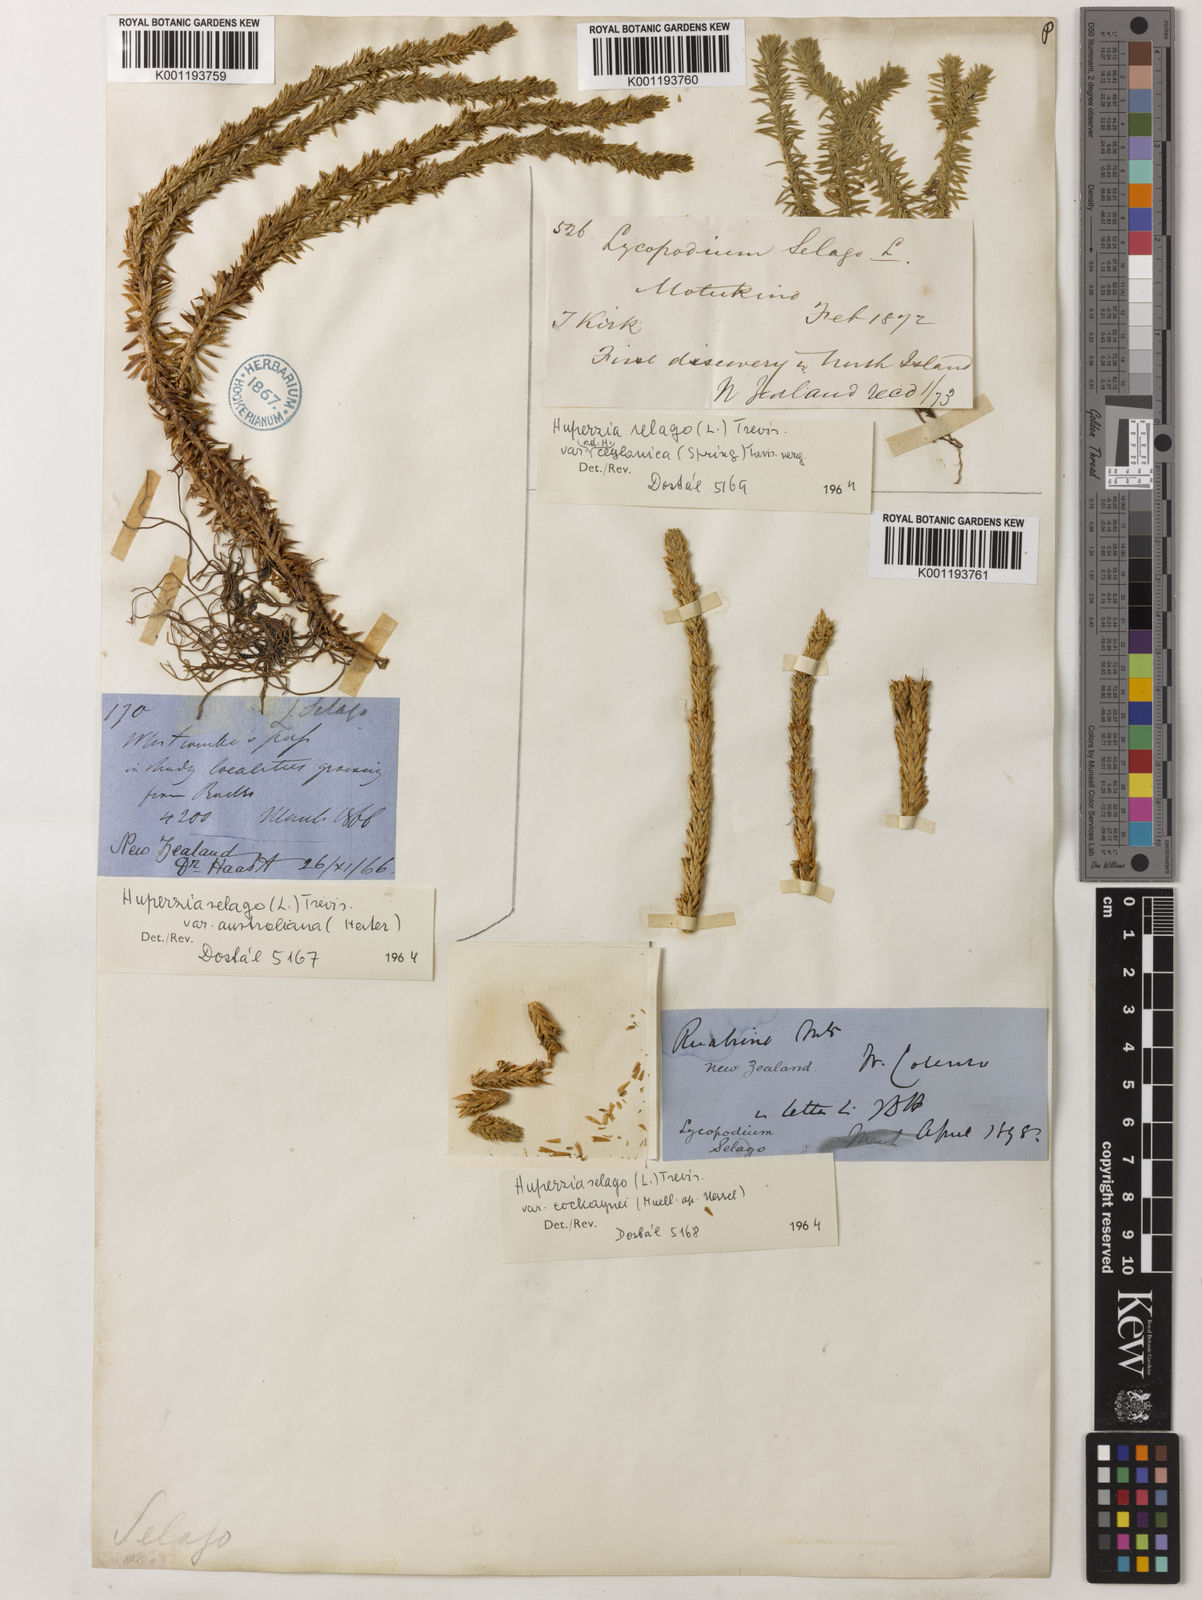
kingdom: Plantae
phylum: Tracheophyta
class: Lycopodiopsida
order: Lycopodiales
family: Lycopodiaceae
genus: Huperzia
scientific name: Huperzia australiana
